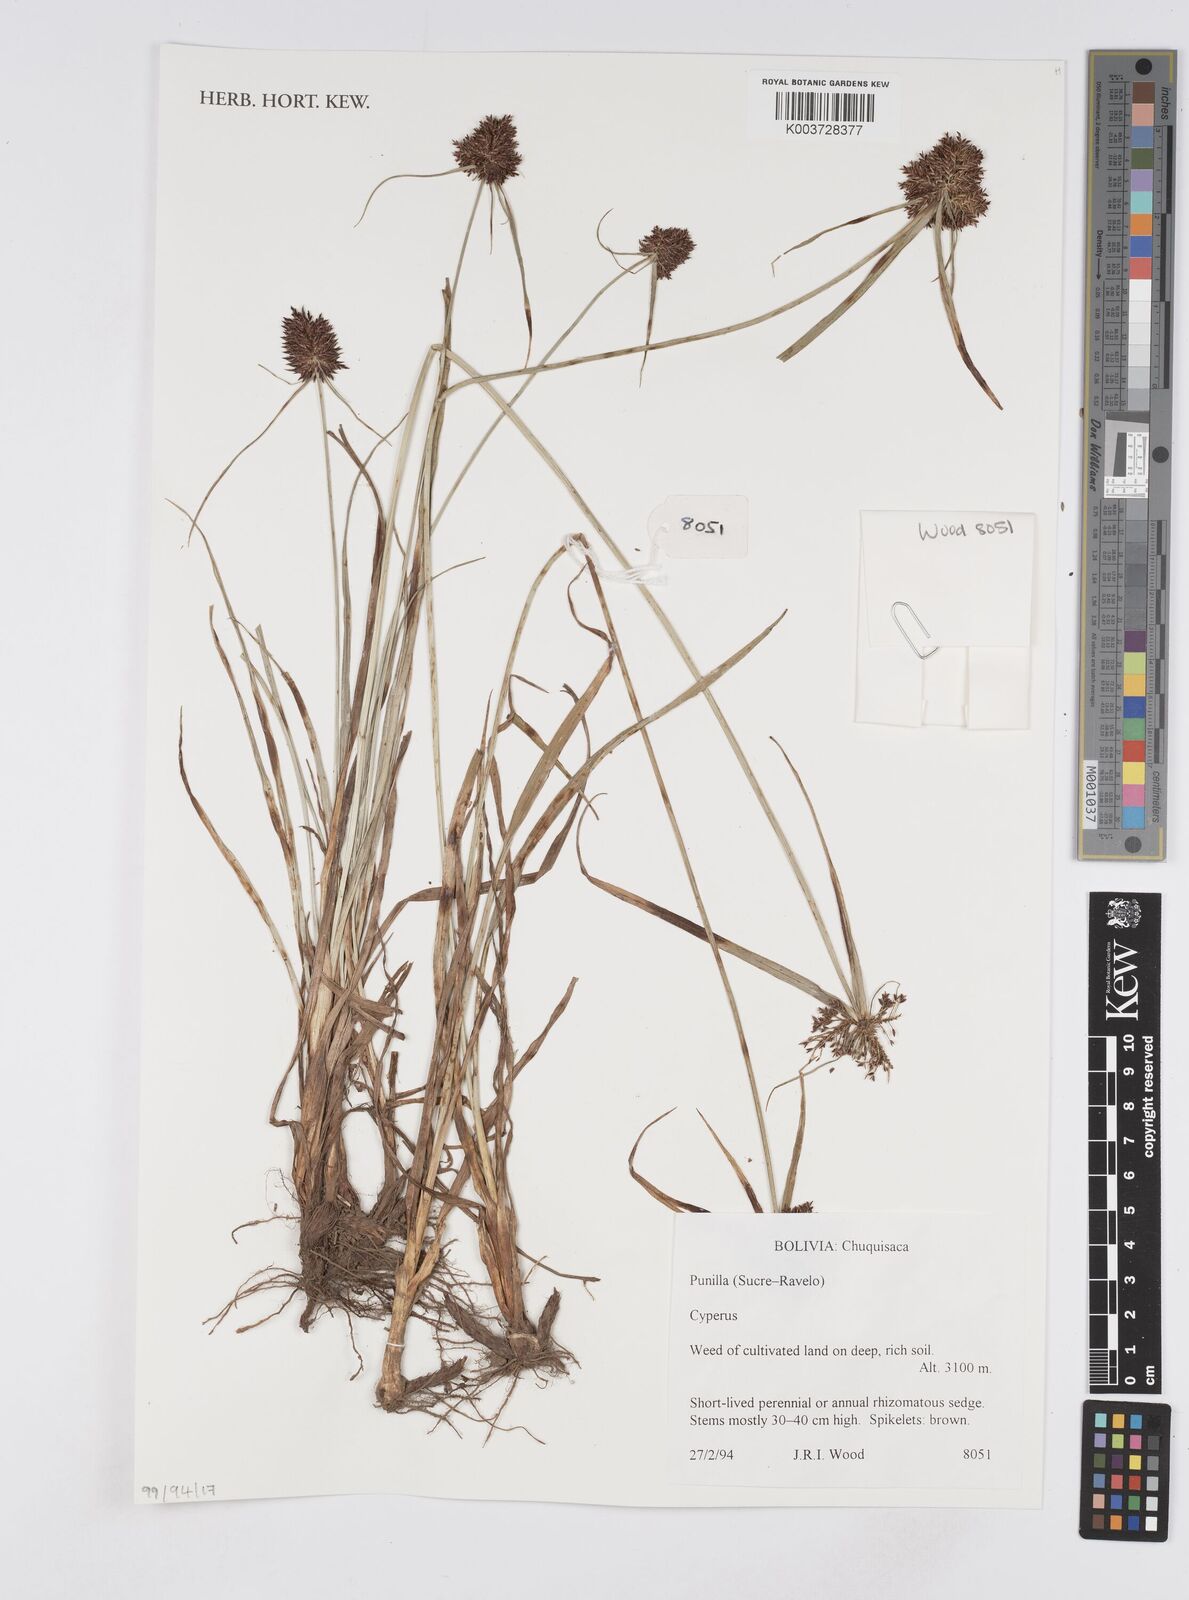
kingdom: Plantae
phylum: Tracheophyta
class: Liliopsida
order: Poales
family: Cyperaceae
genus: Cyperus
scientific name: Cyperus
